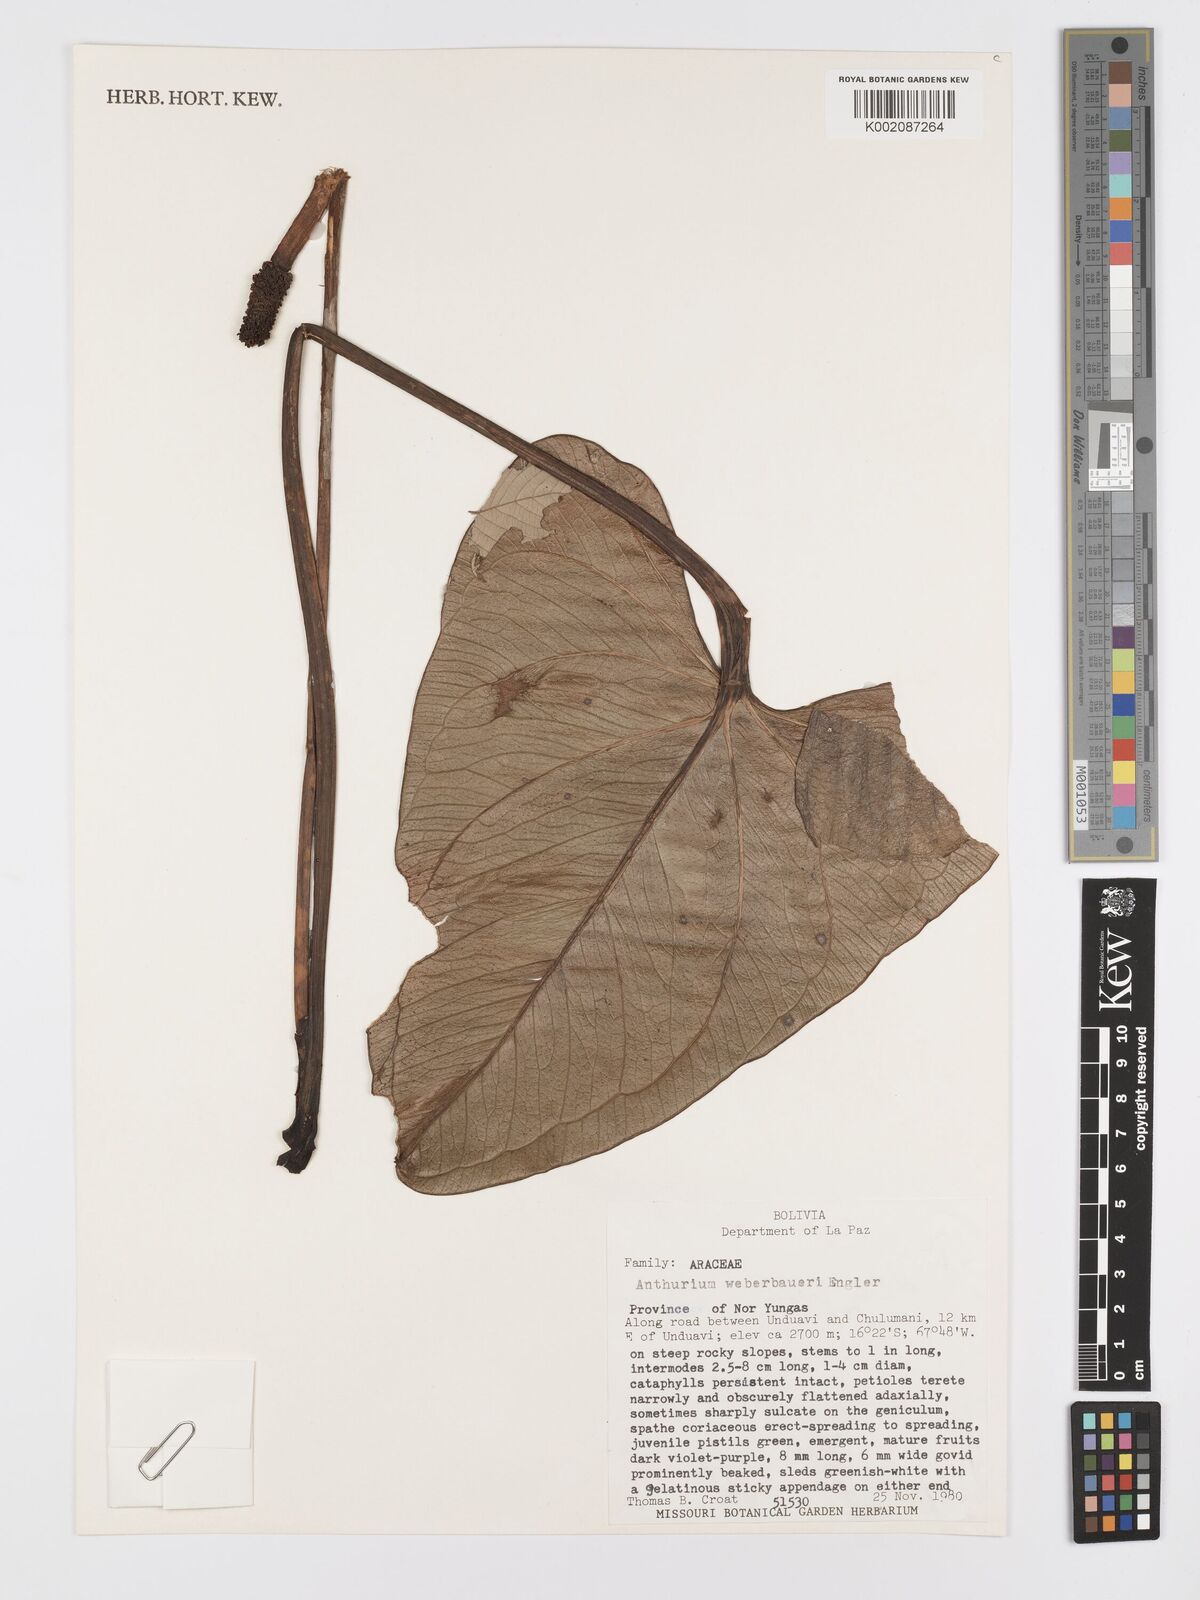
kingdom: Plantae
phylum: Tracheophyta
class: Liliopsida
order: Alismatales
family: Araceae
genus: Anthurium
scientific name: Anthurium weberbaueri
